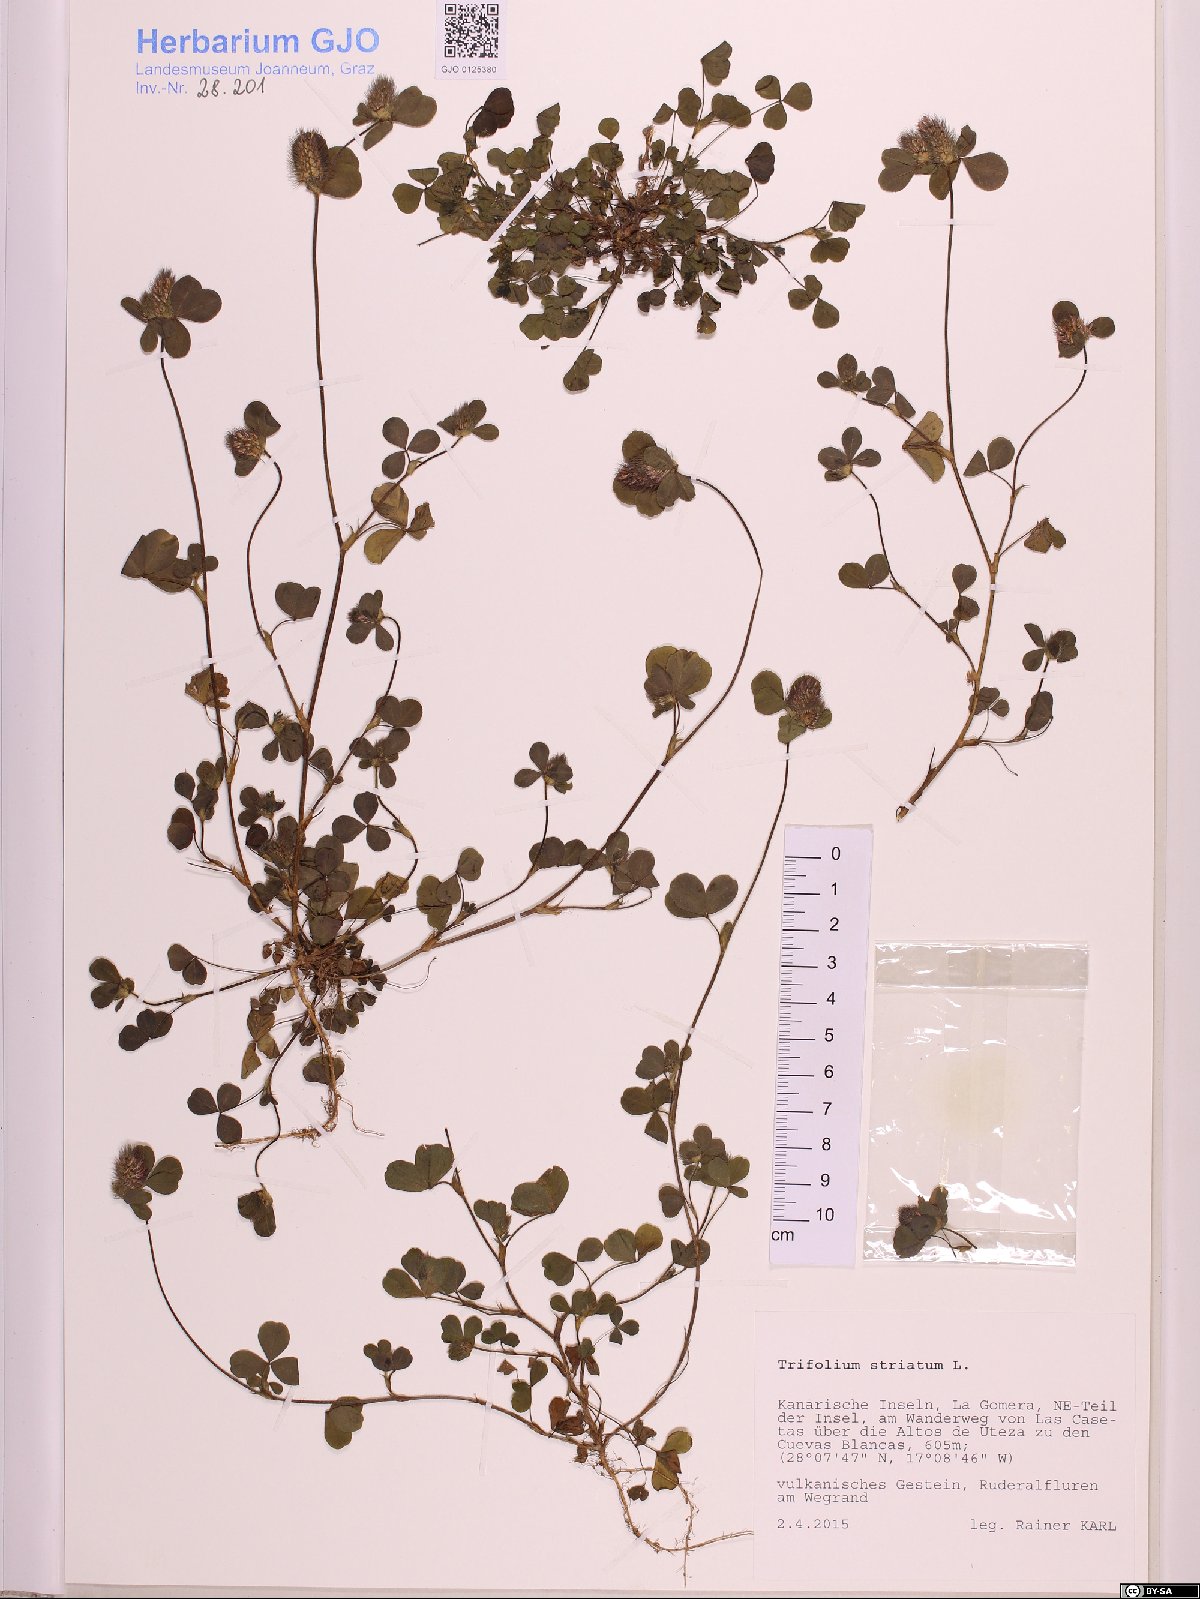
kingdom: Plantae
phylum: Tracheophyta
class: Magnoliopsida
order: Fabales
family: Fabaceae
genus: Trifolium
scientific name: Trifolium striatum
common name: Knotted clover
